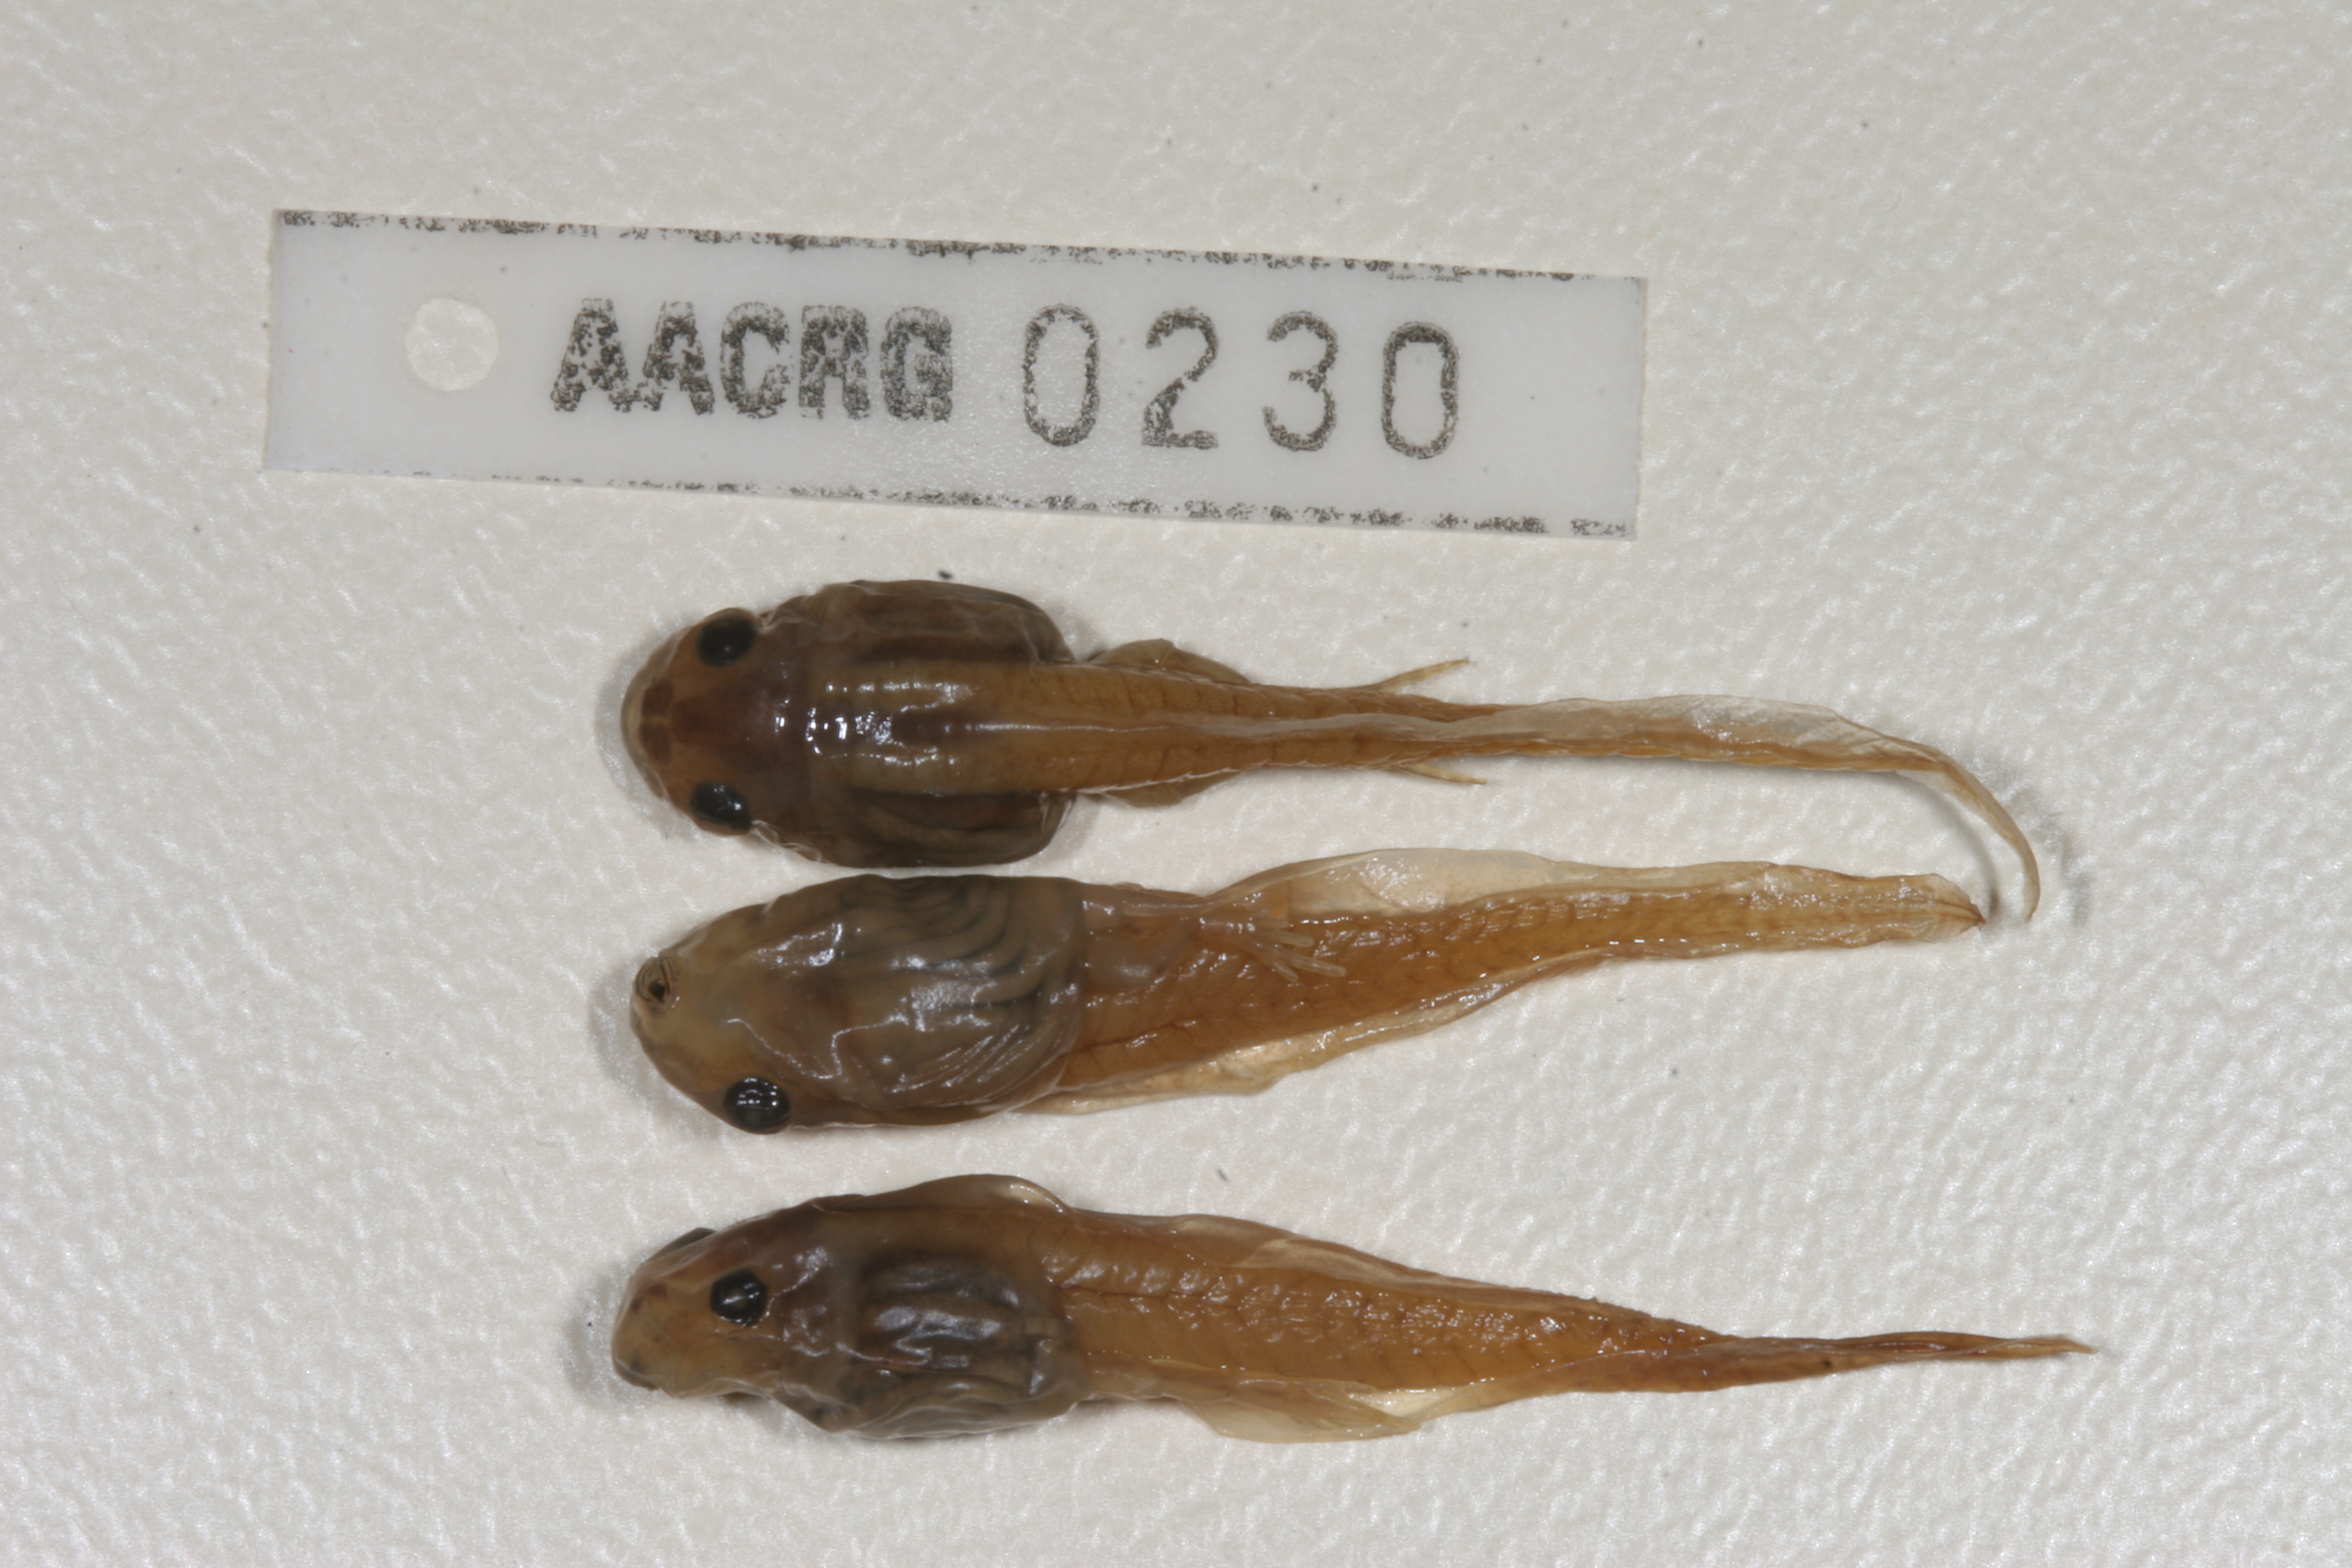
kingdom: Animalia
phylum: Chordata
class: Amphibia
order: Anura
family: Pyxicephalidae
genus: Amietia
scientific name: Amietia angolensis
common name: Dusky-throated frog
